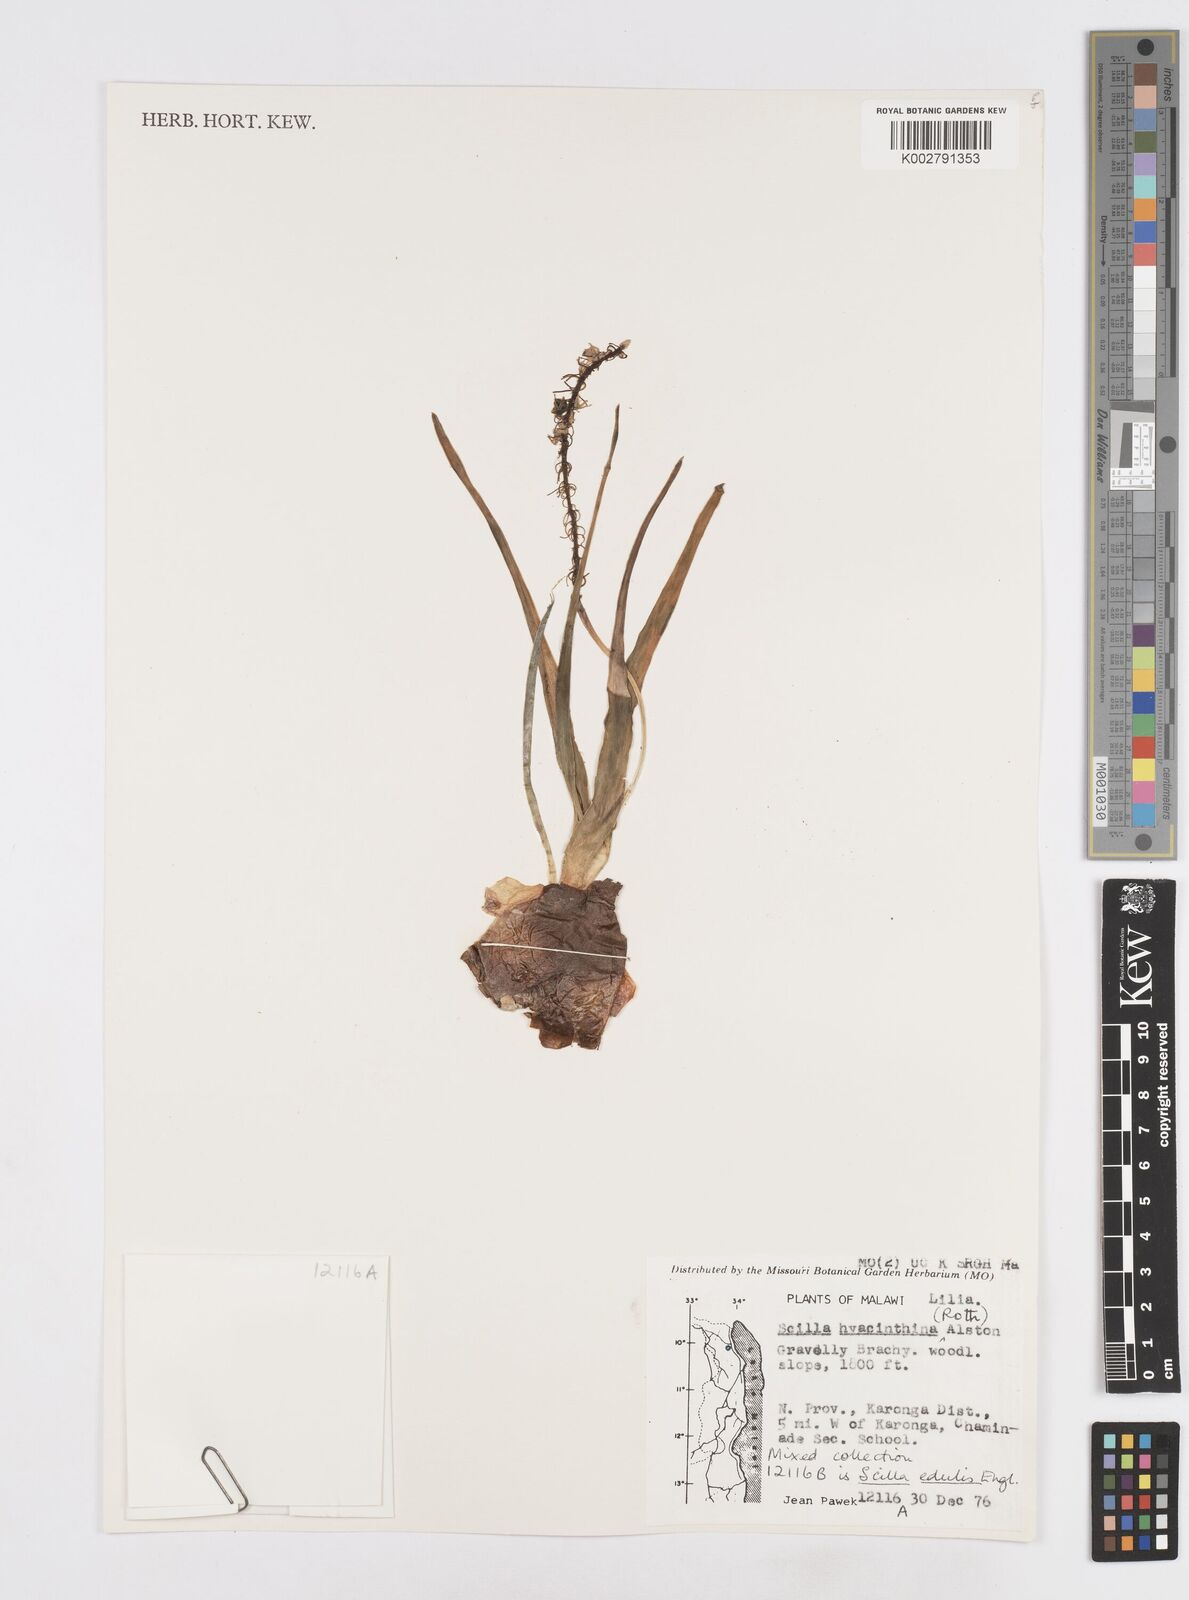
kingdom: Plantae
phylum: Tracheophyta
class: Liliopsida
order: Asparagales
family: Asparagaceae
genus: Ledebouria
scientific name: Ledebouria revoluta
